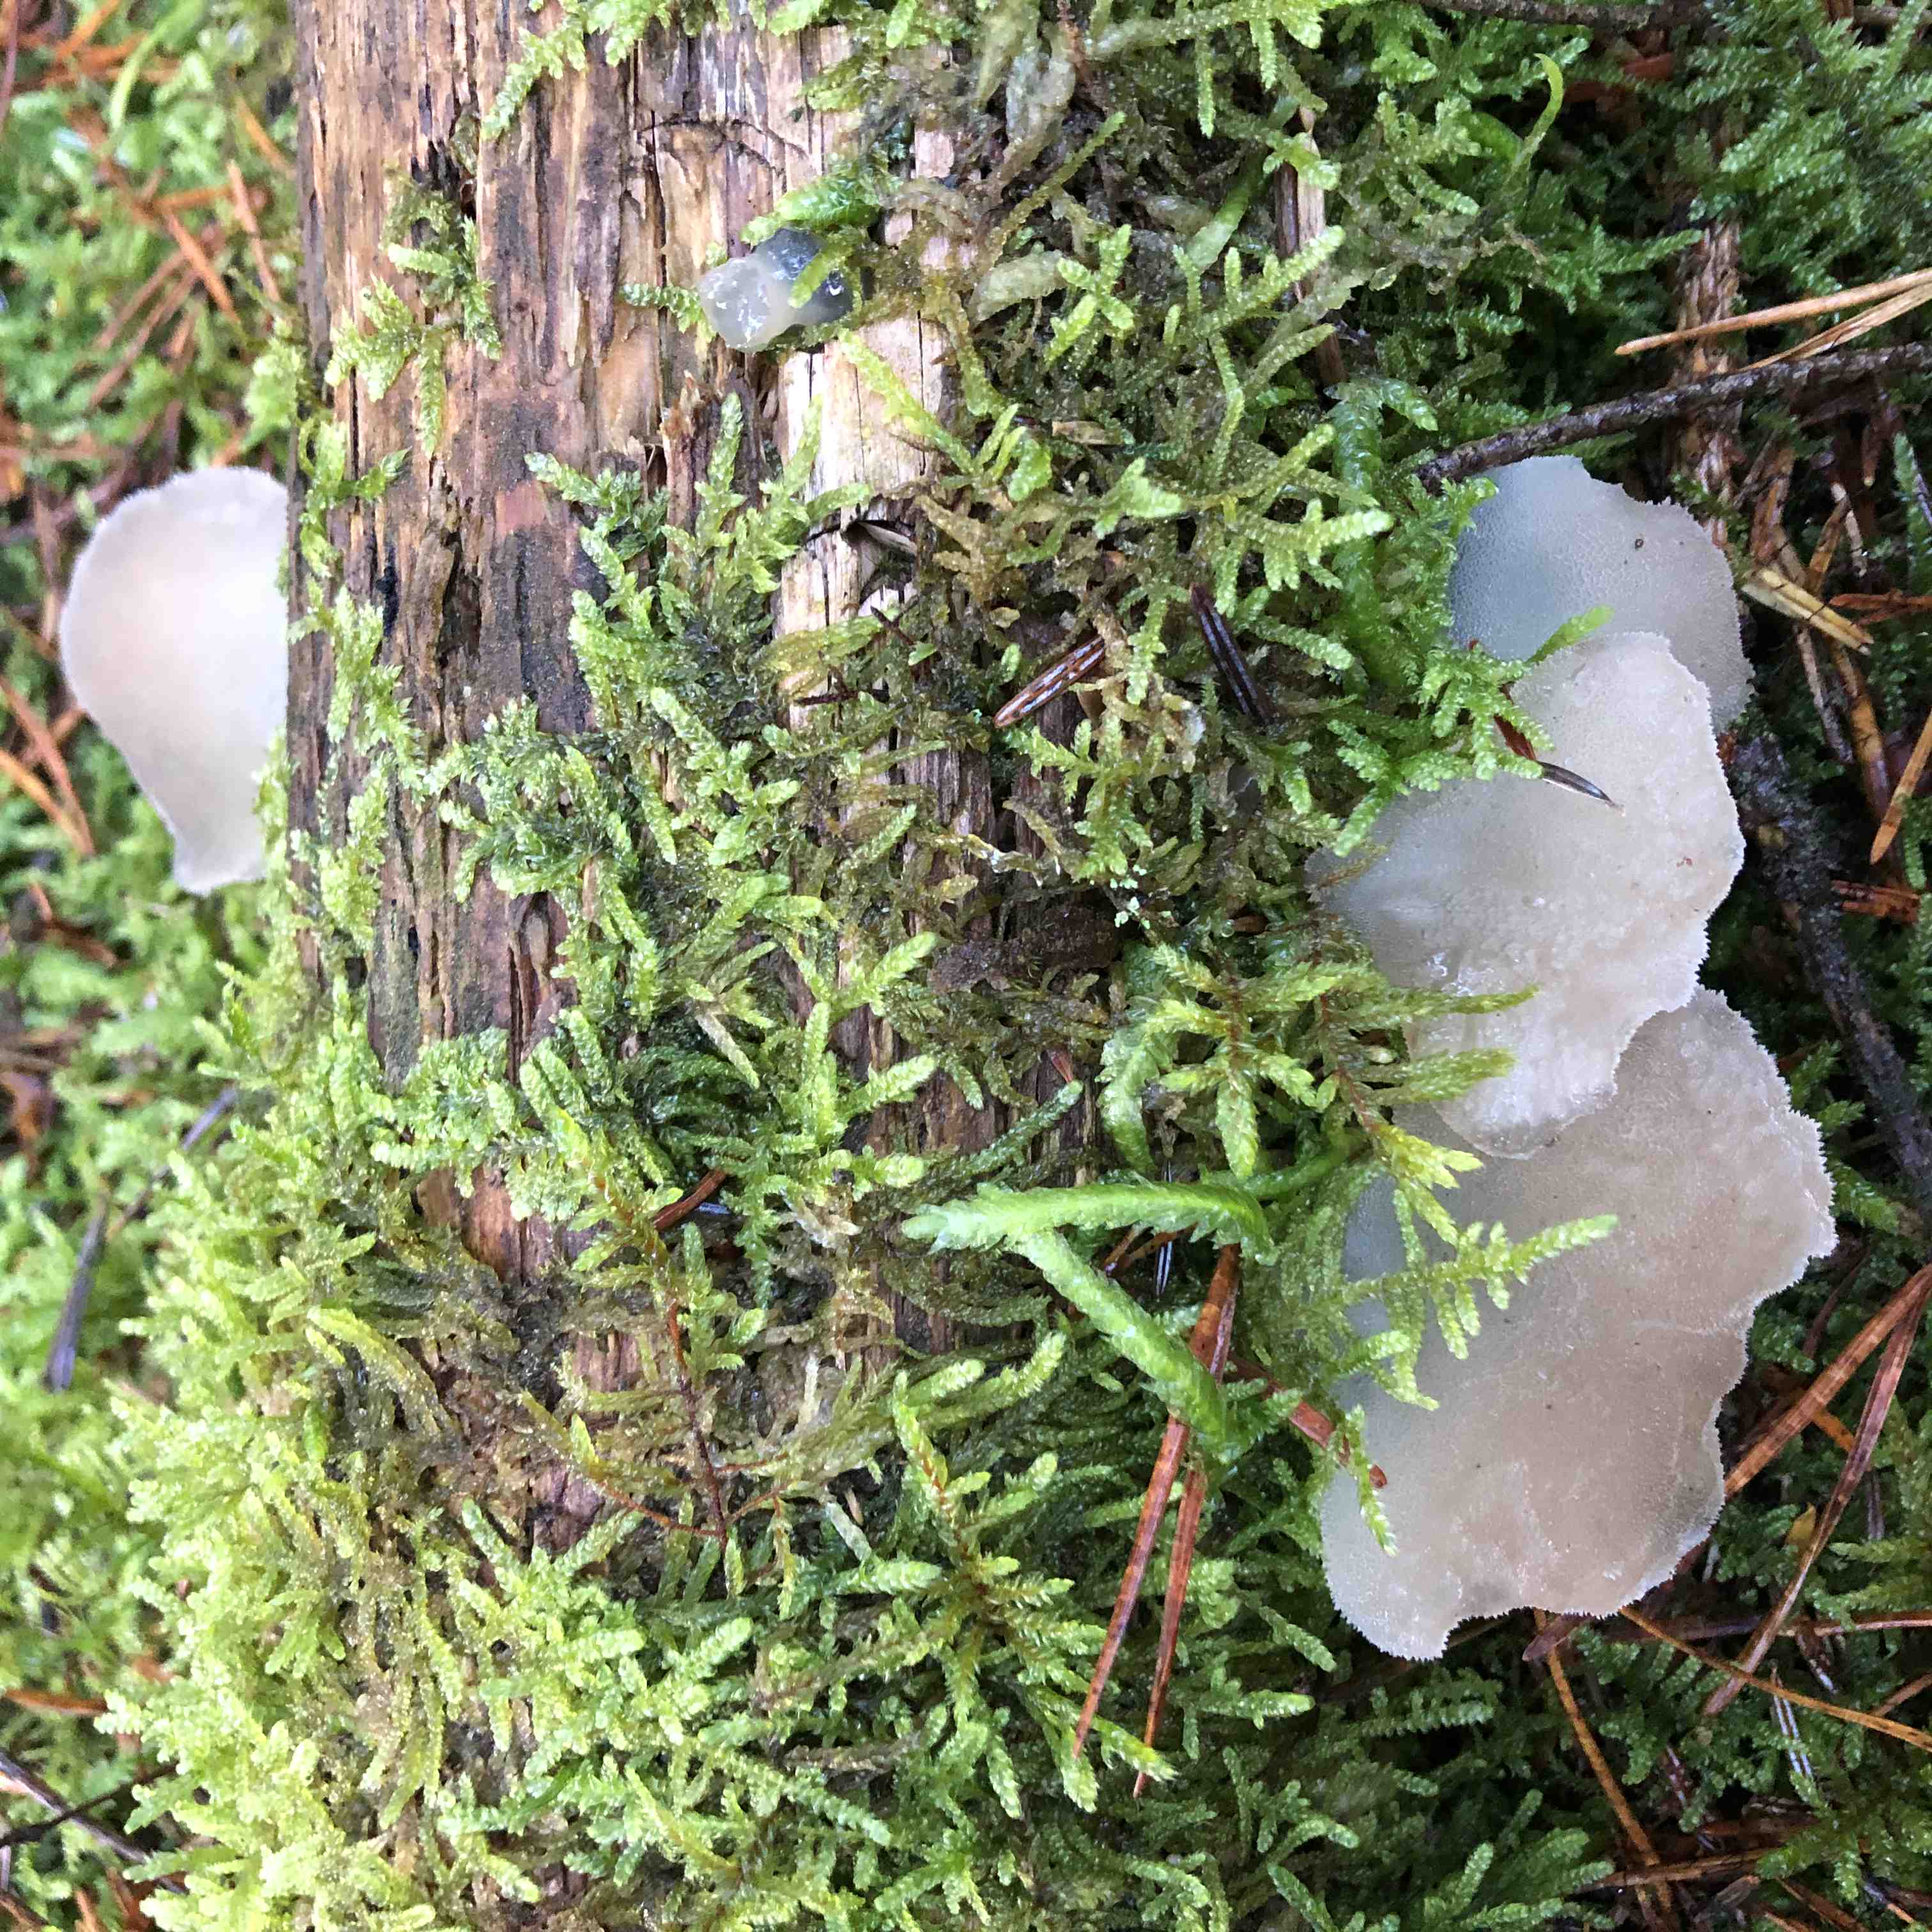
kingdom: Fungi
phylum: Basidiomycota
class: Agaricomycetes
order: Auriculariales
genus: Pseudohydnum
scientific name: Pseudohydnum gelatinosum
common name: bævretand
